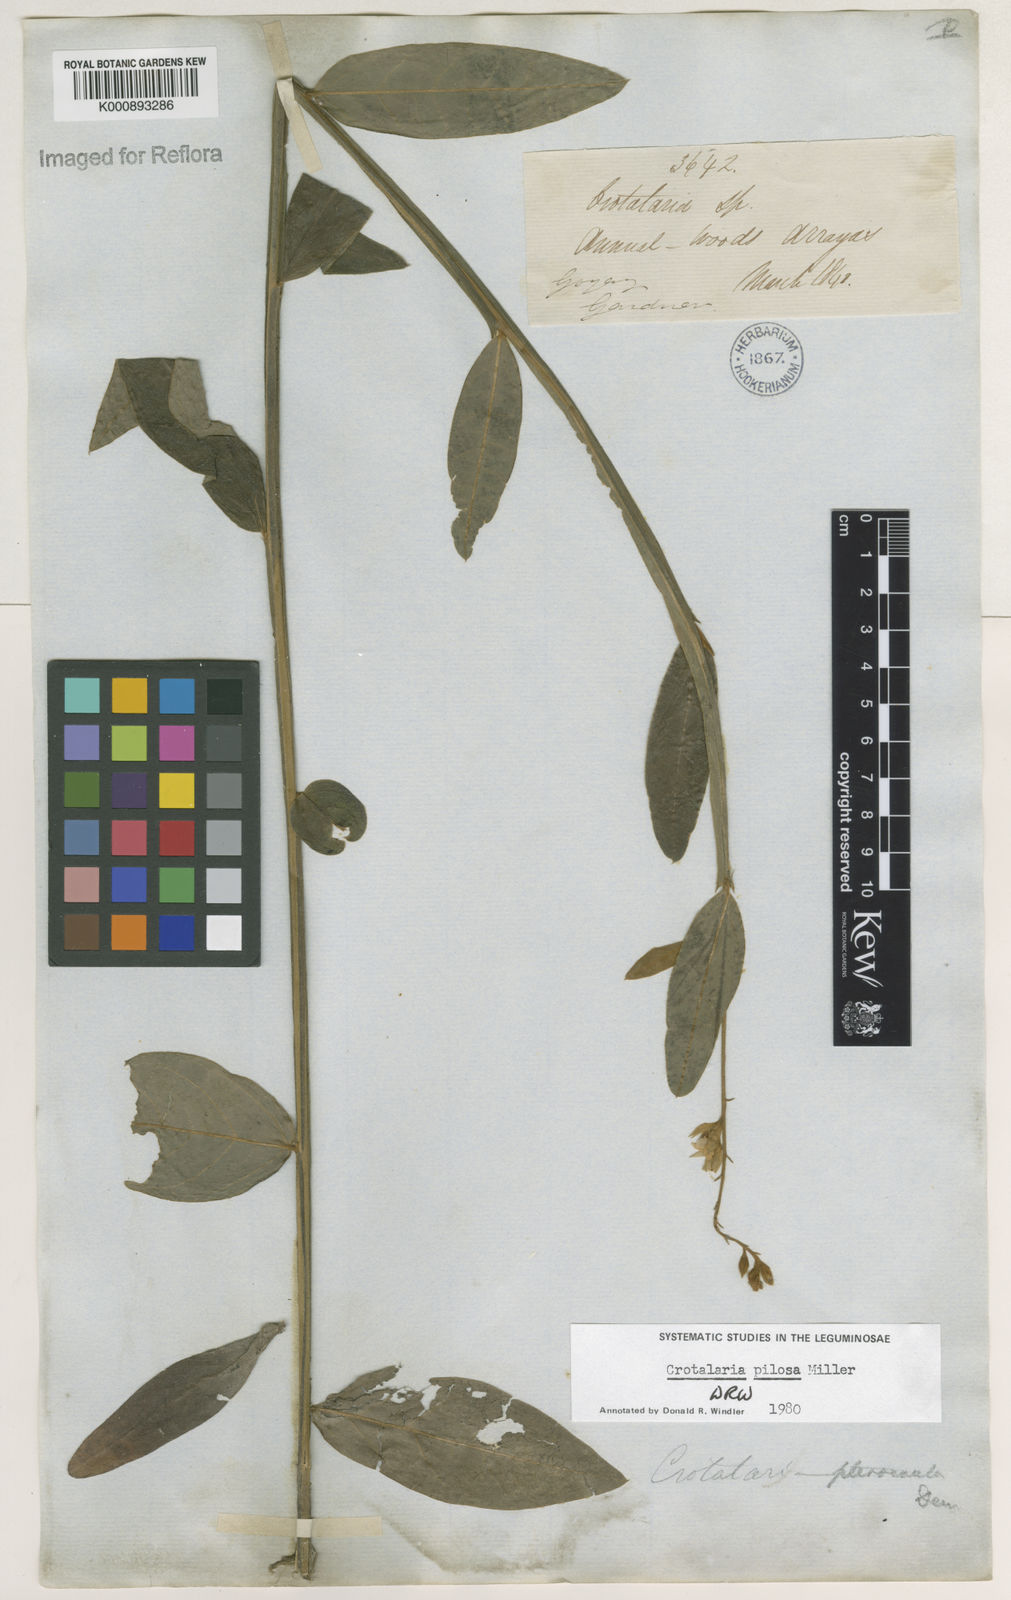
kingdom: Plantae
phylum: Tracheophyta
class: Magnoliopsida
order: Fabales
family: Fabaceae
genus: Crotalaria
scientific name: Crotalaria pilosa
